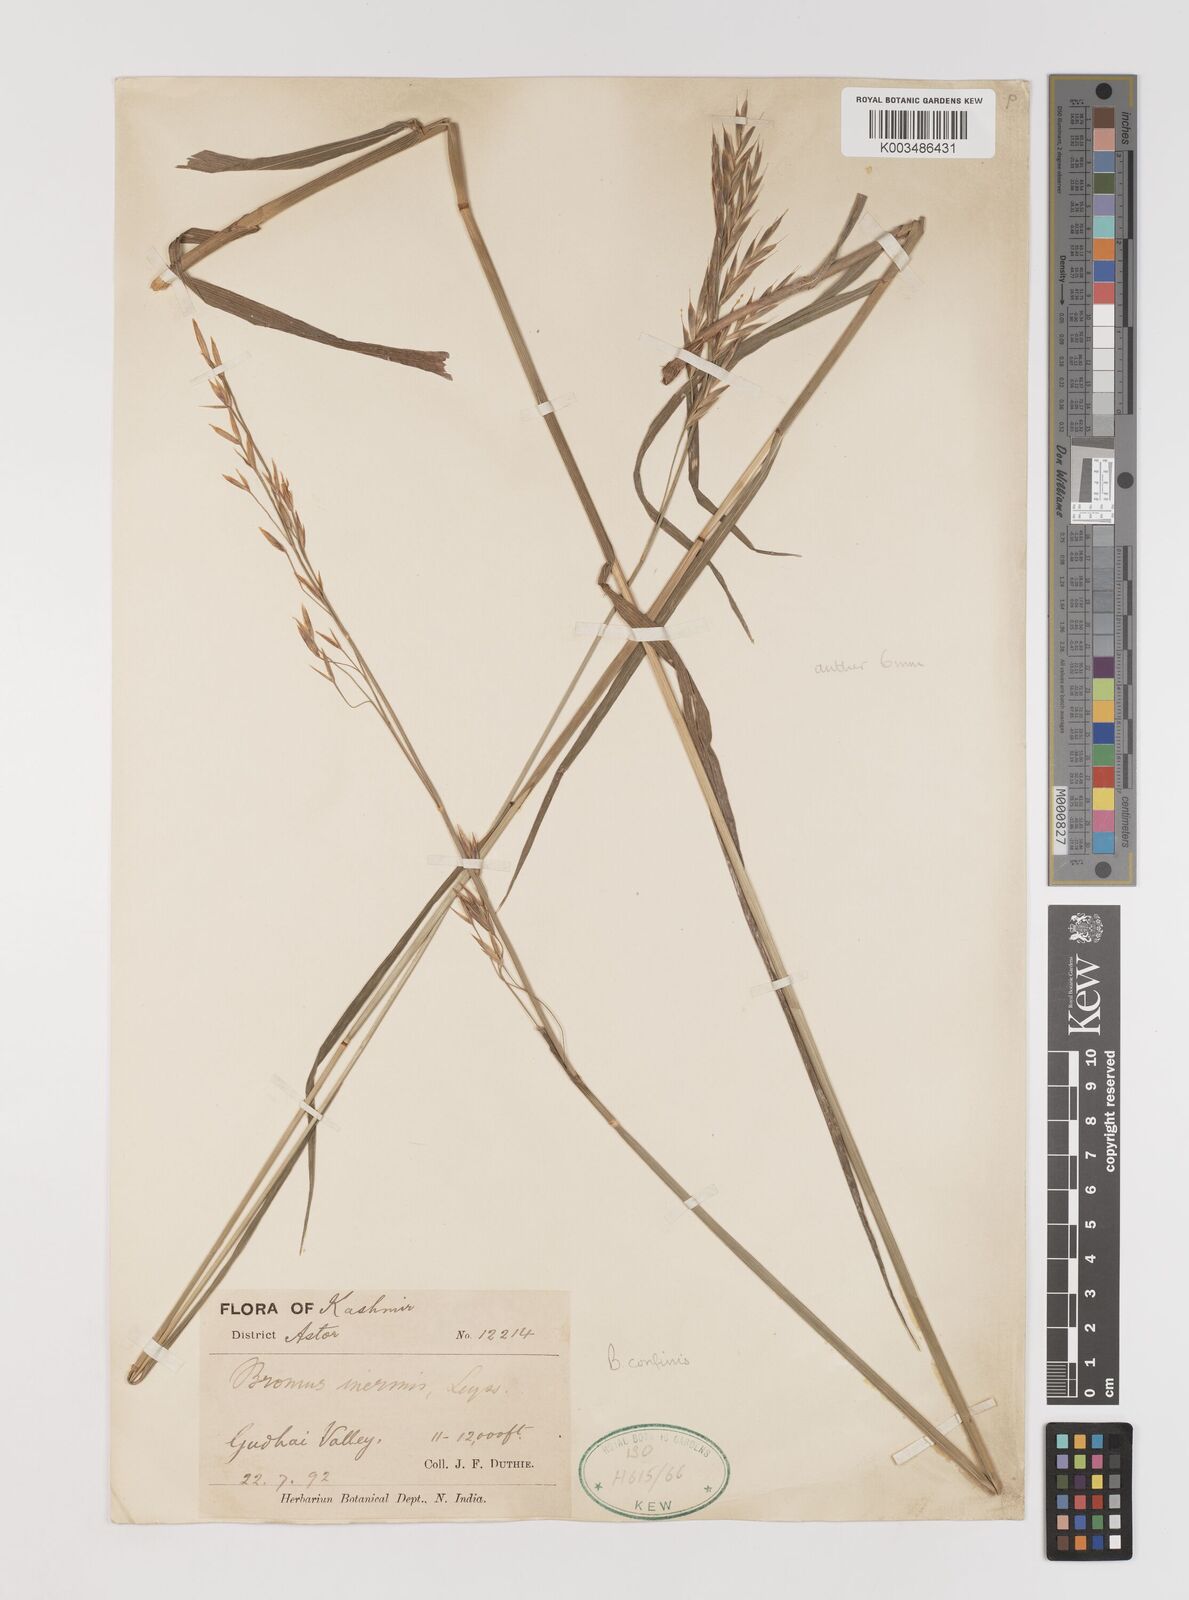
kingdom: Plantae
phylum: Tracheophyta
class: Liliopsida
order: Poales
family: Poaceae
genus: Bromus
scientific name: Bromus confinis
